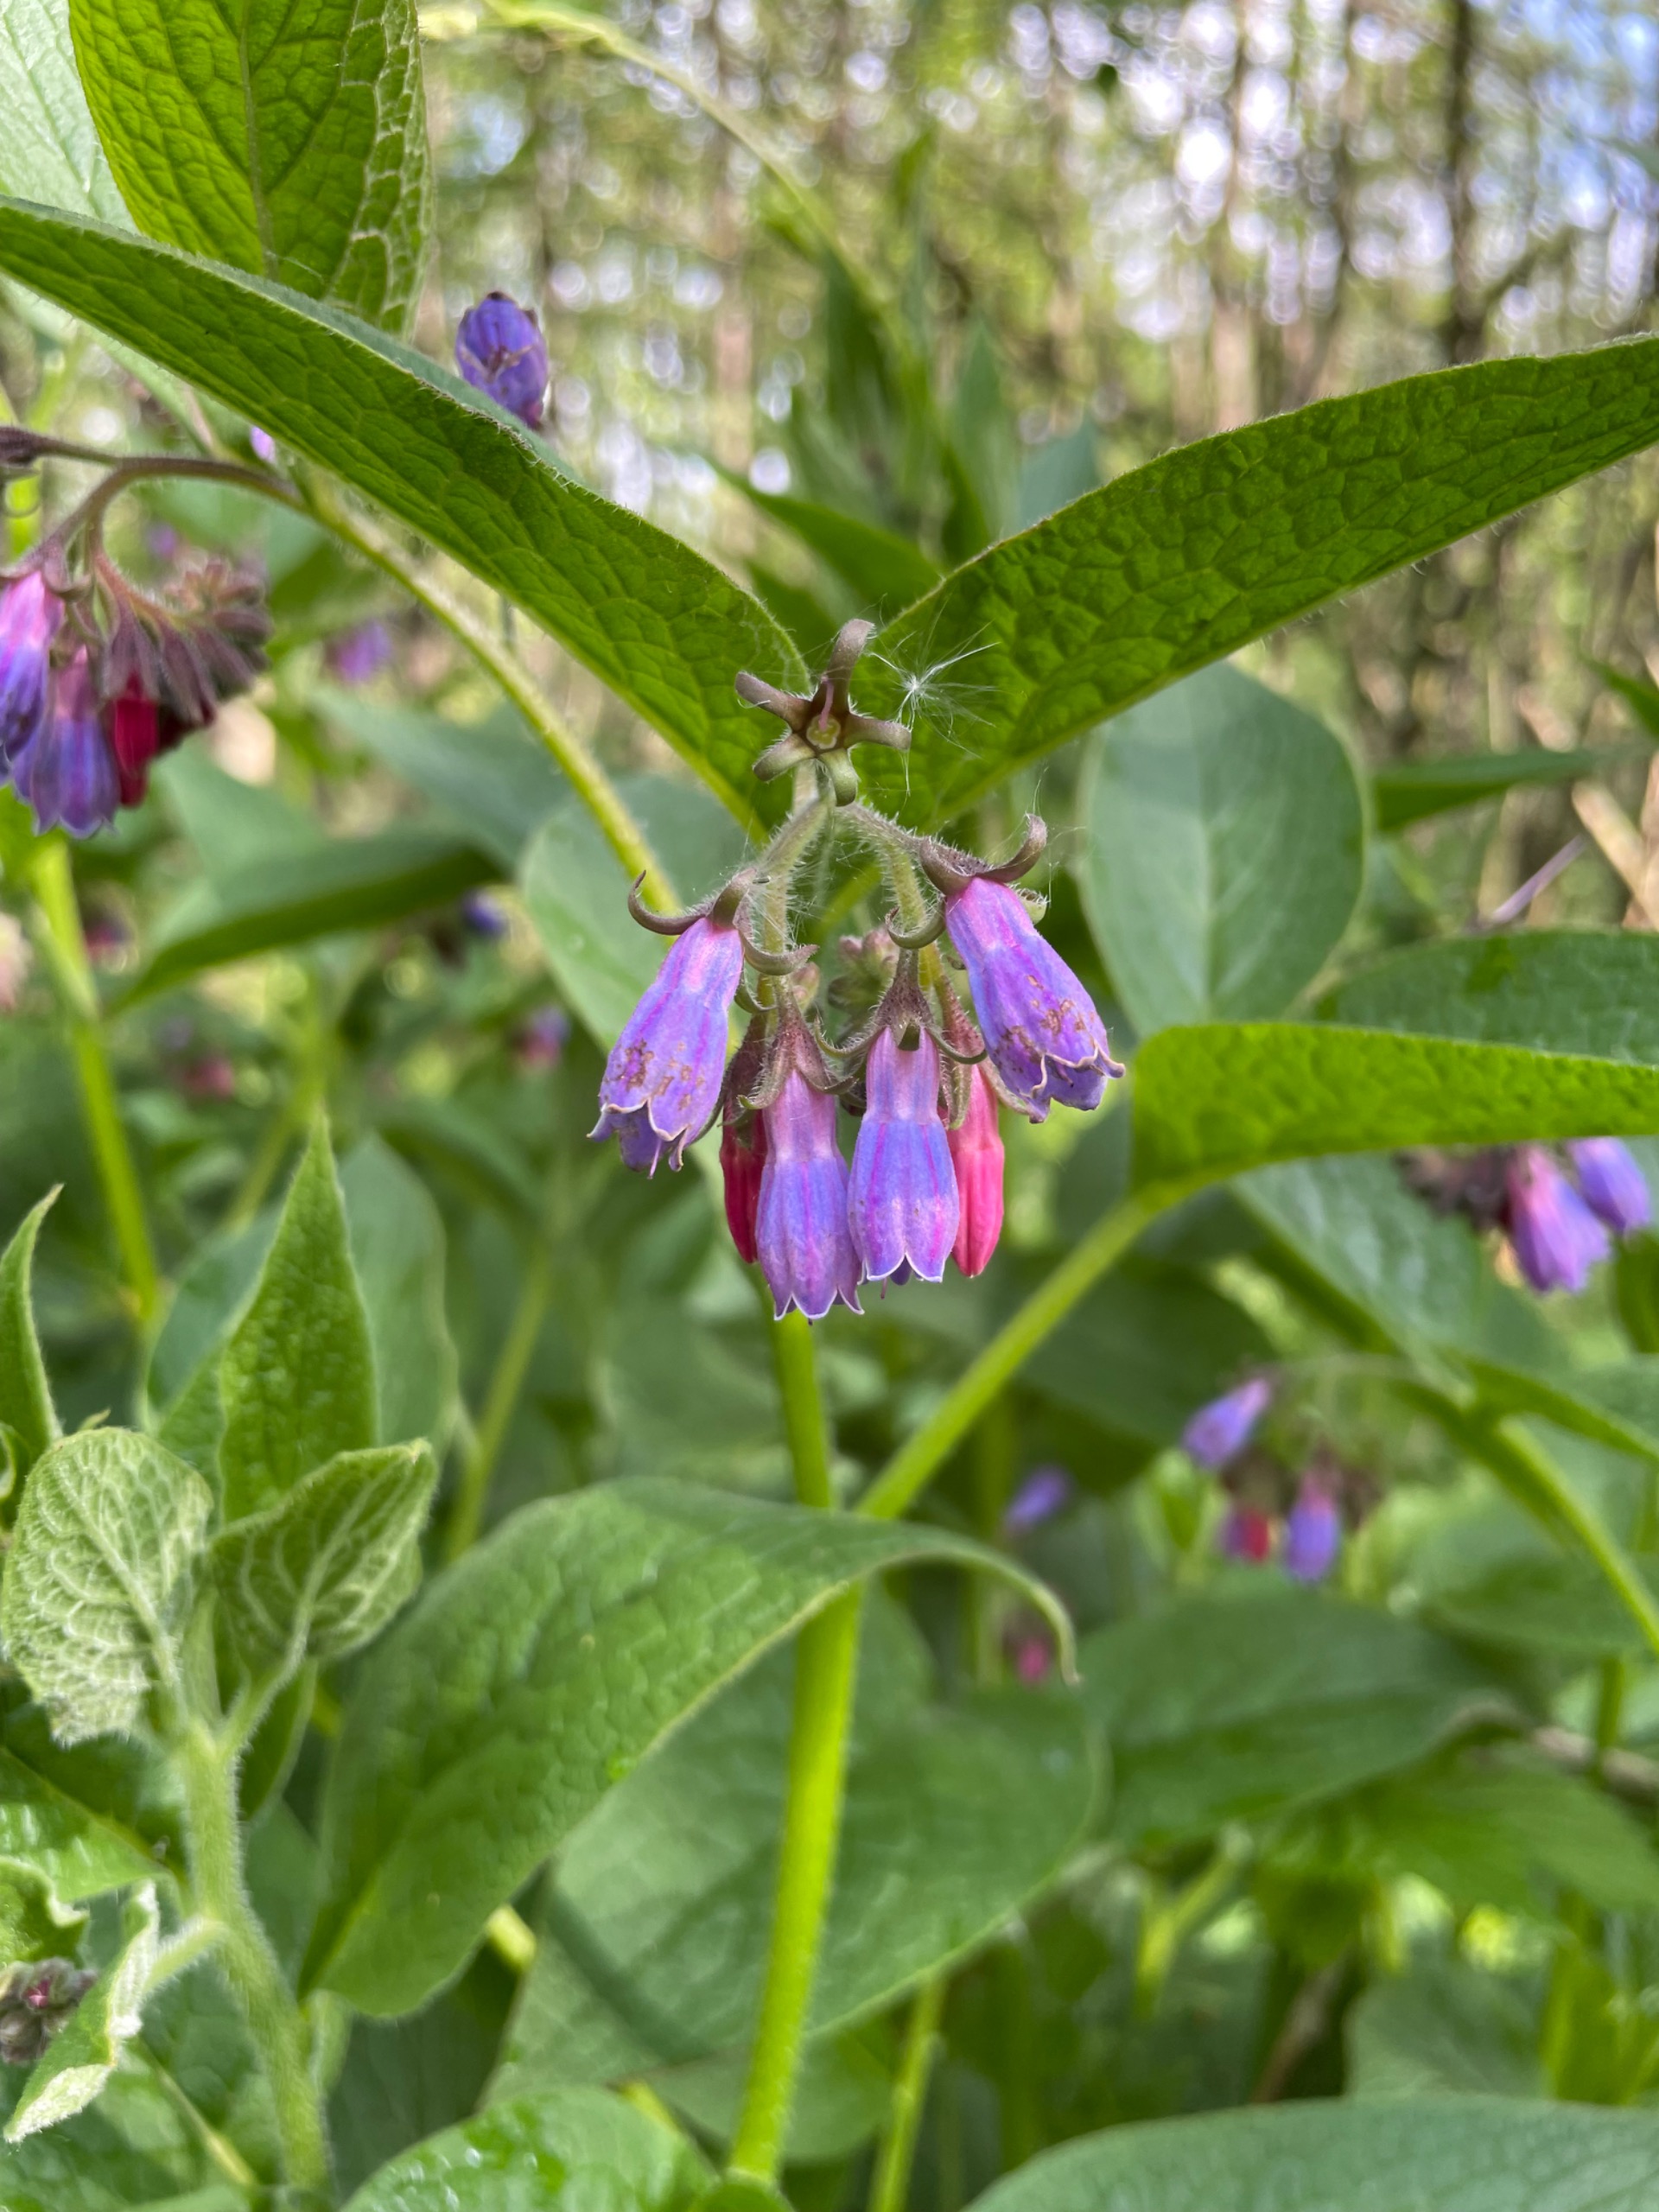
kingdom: Plantae
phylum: Tracheophyta
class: Magnoliopsida
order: Boraginales
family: Boraginaceae
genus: Symphytum
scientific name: Symphytum uplandicum
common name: Foder-kulsukker
